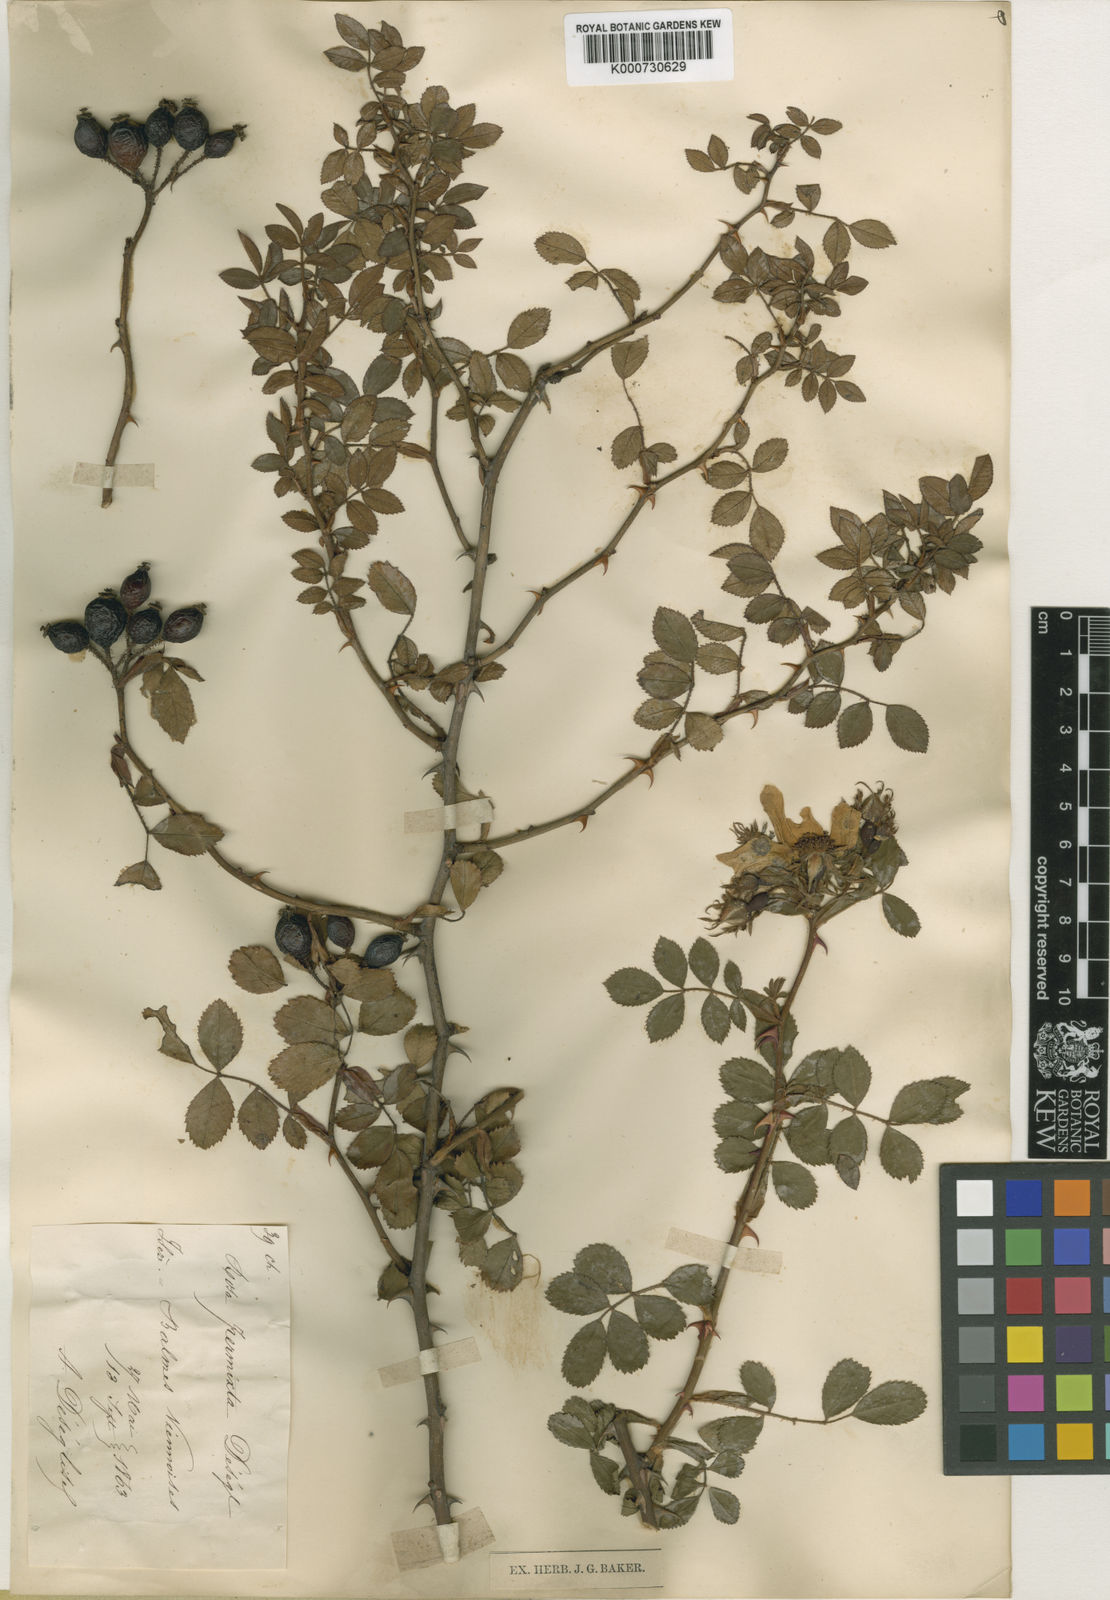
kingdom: Plantae
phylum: Tracheophyta
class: Magnoliopsida
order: Rosales
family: Rosaceae
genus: Rosa
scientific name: Rosa
